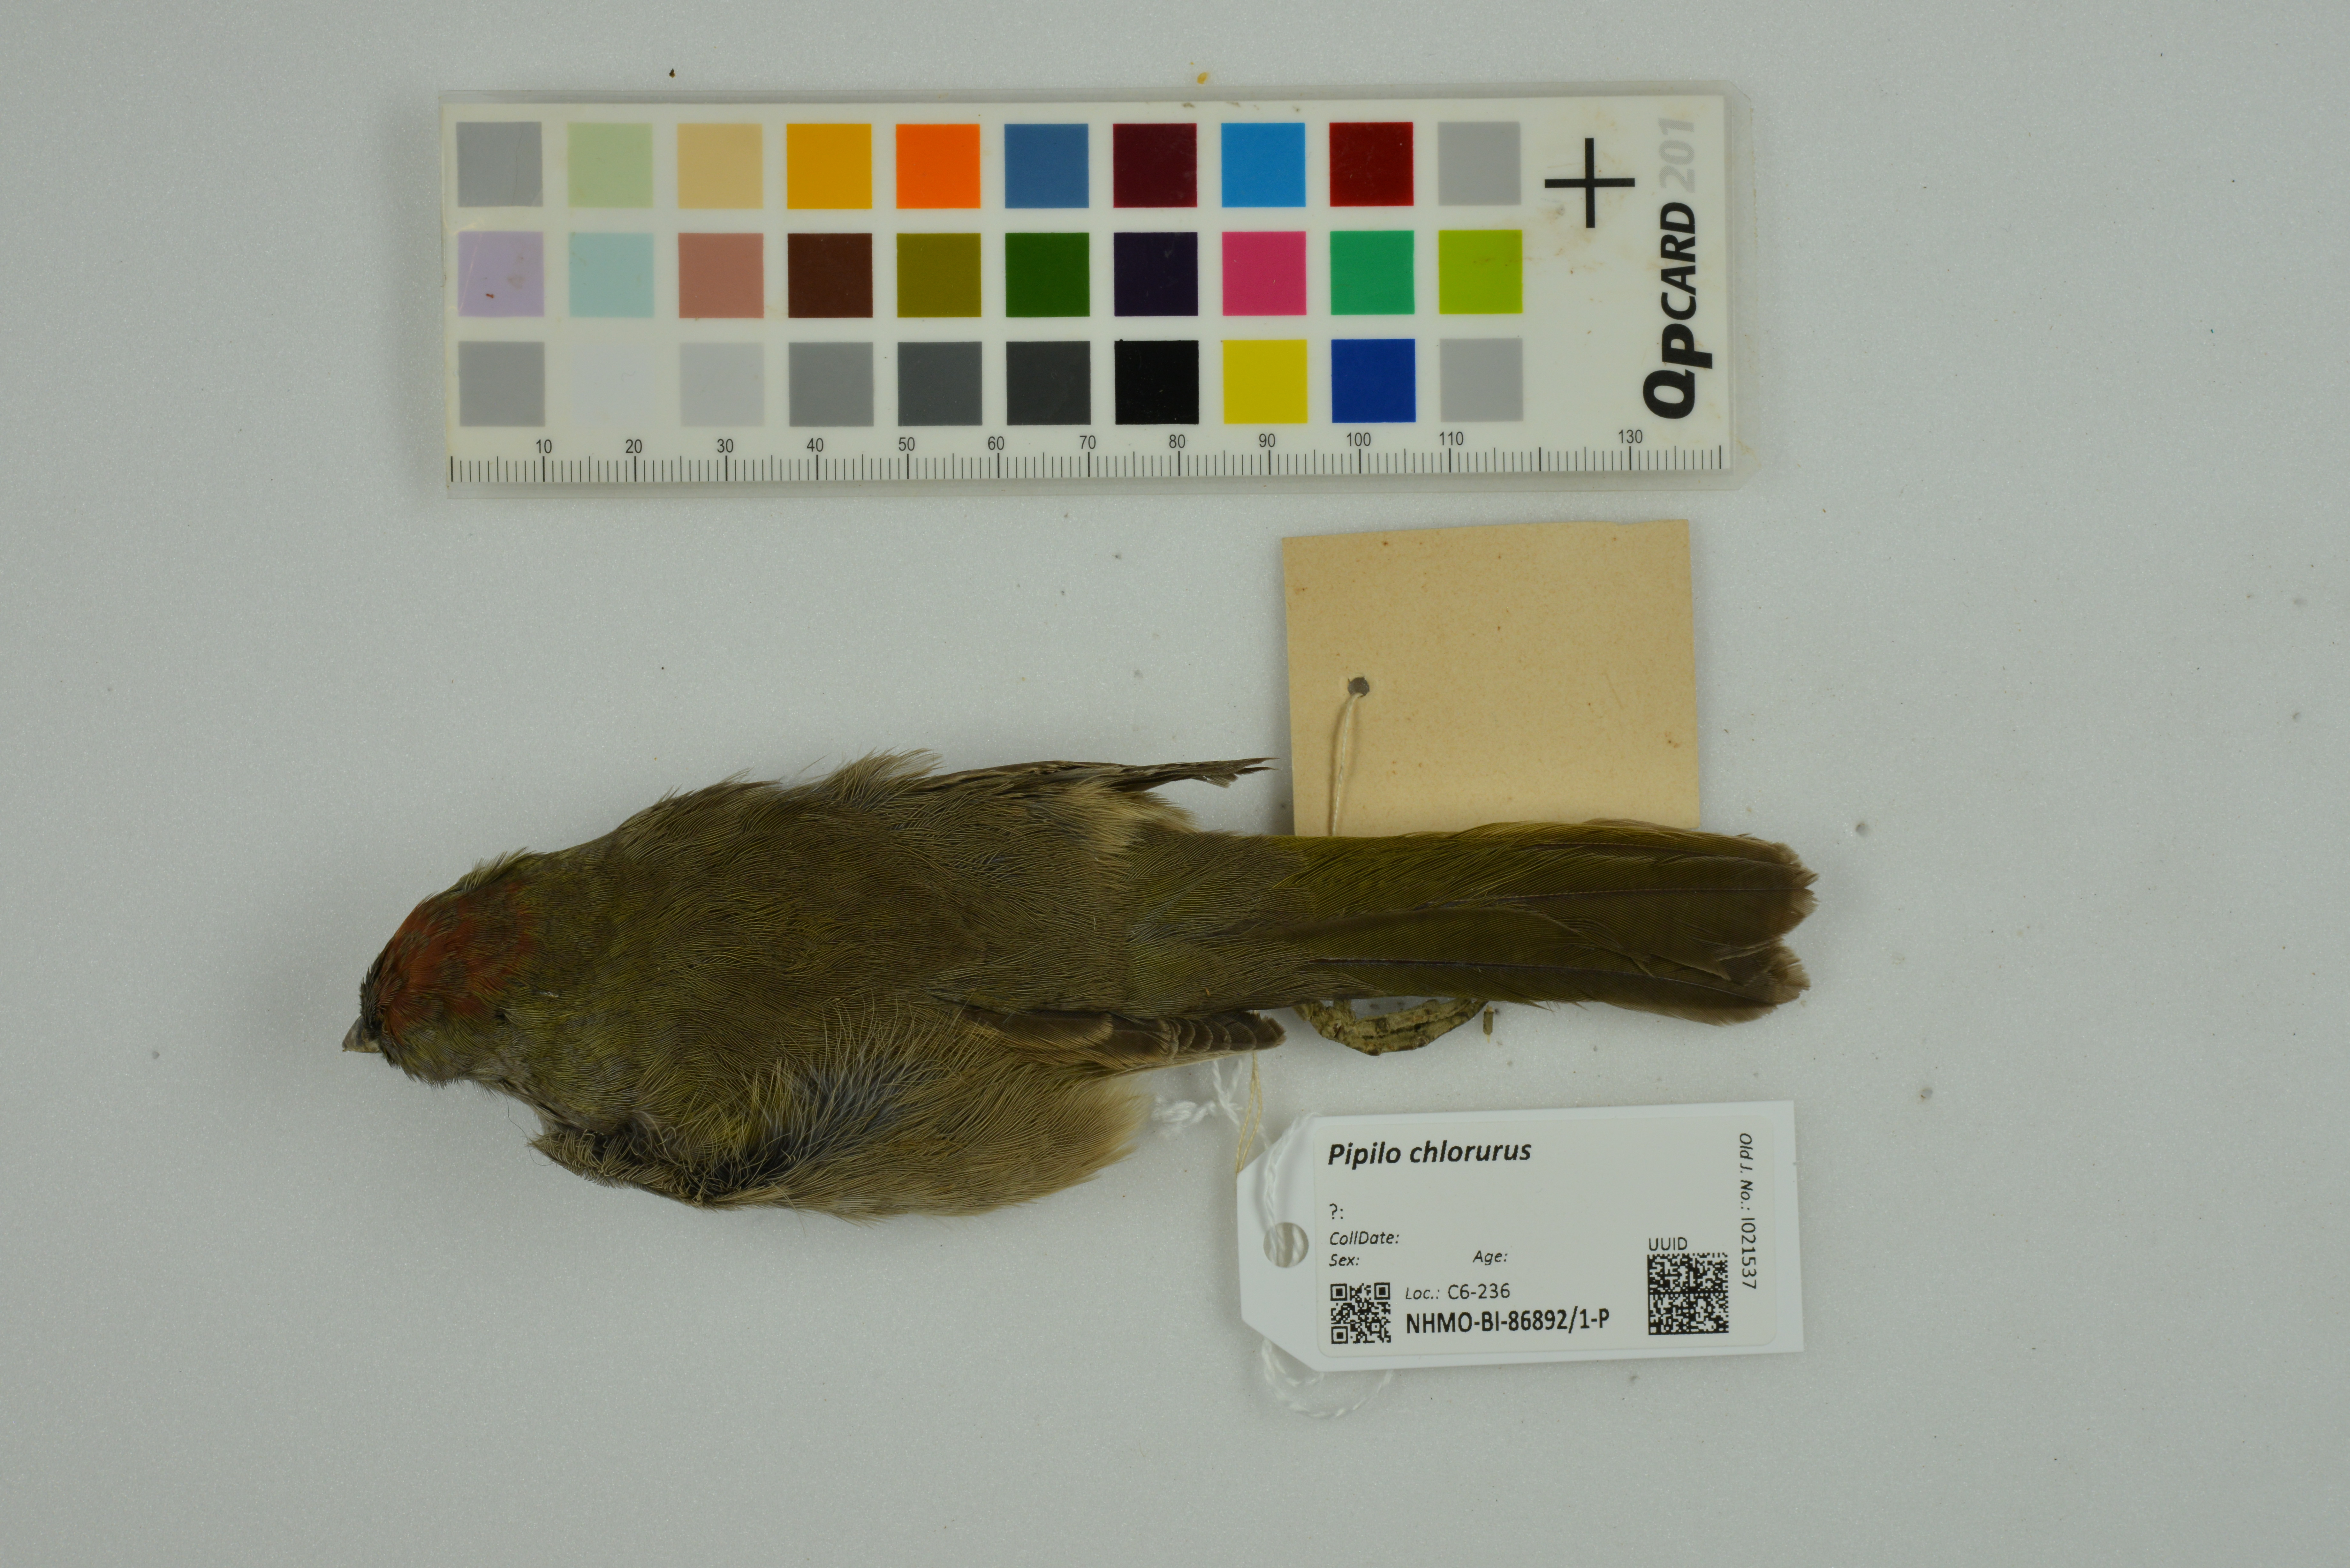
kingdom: Animalia
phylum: Chordata
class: Aves
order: Passeriformes
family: Passerellidae
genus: Pipilo
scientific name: Pipilo chlorurus
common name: Green-tailed towhee
